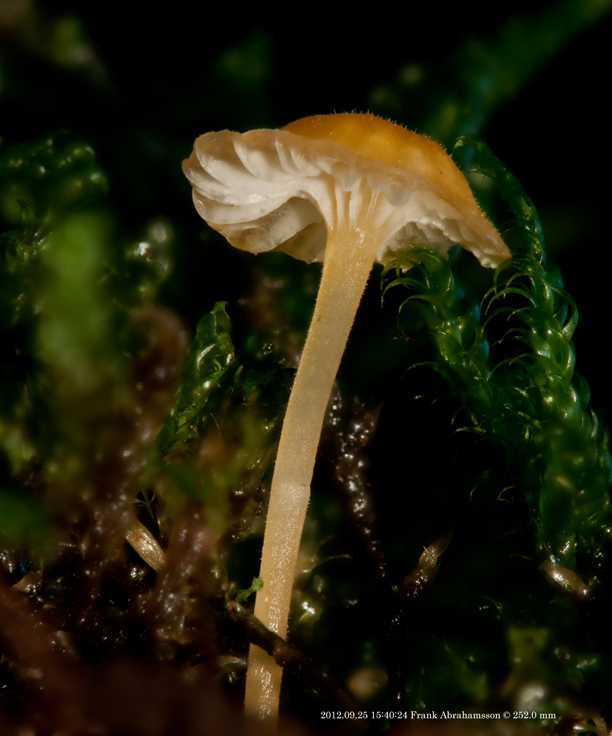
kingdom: Fungi
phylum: Basidiomycota
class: Agaricomycetes
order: Hymenochaetales
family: Rickenellaceae
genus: Rickenella
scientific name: Rickenella fibula
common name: orange mosnavlehat
